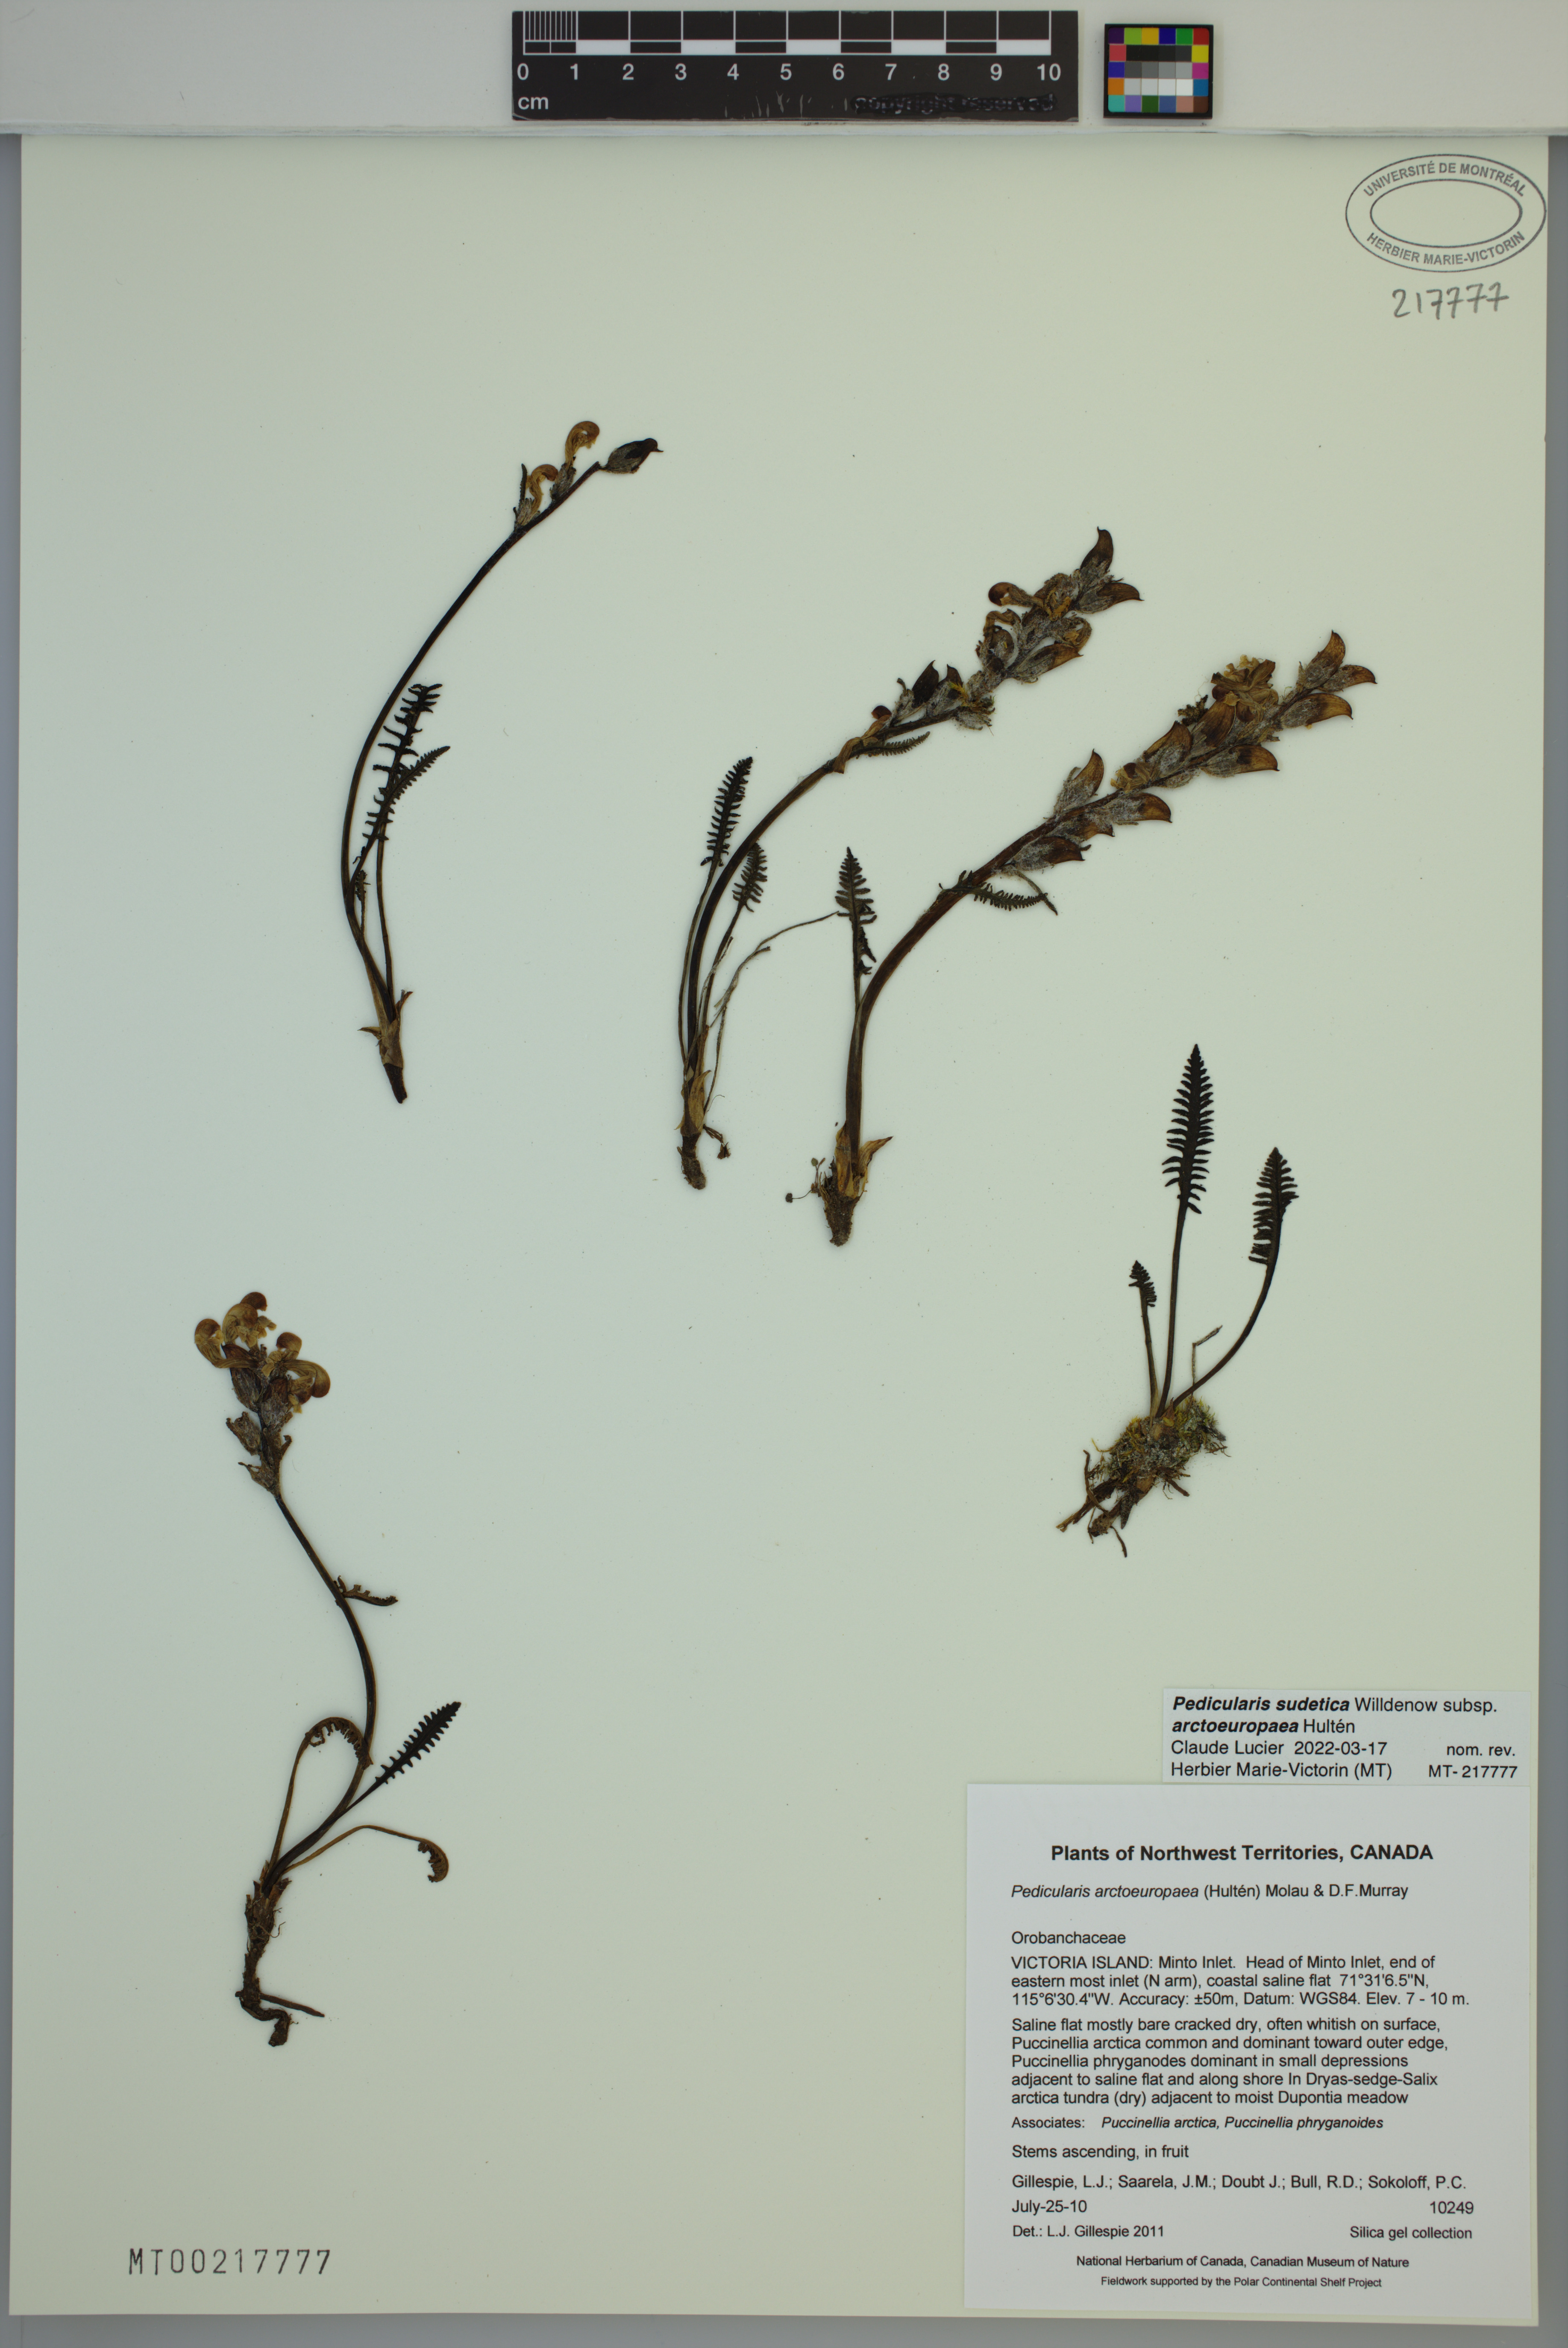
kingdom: Plantae
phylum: Tracheophyta
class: Magnoliopsida
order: Lamiales
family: Orobanchaceae
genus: Pedicularis
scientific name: Pedicularis arctoeuropaea
